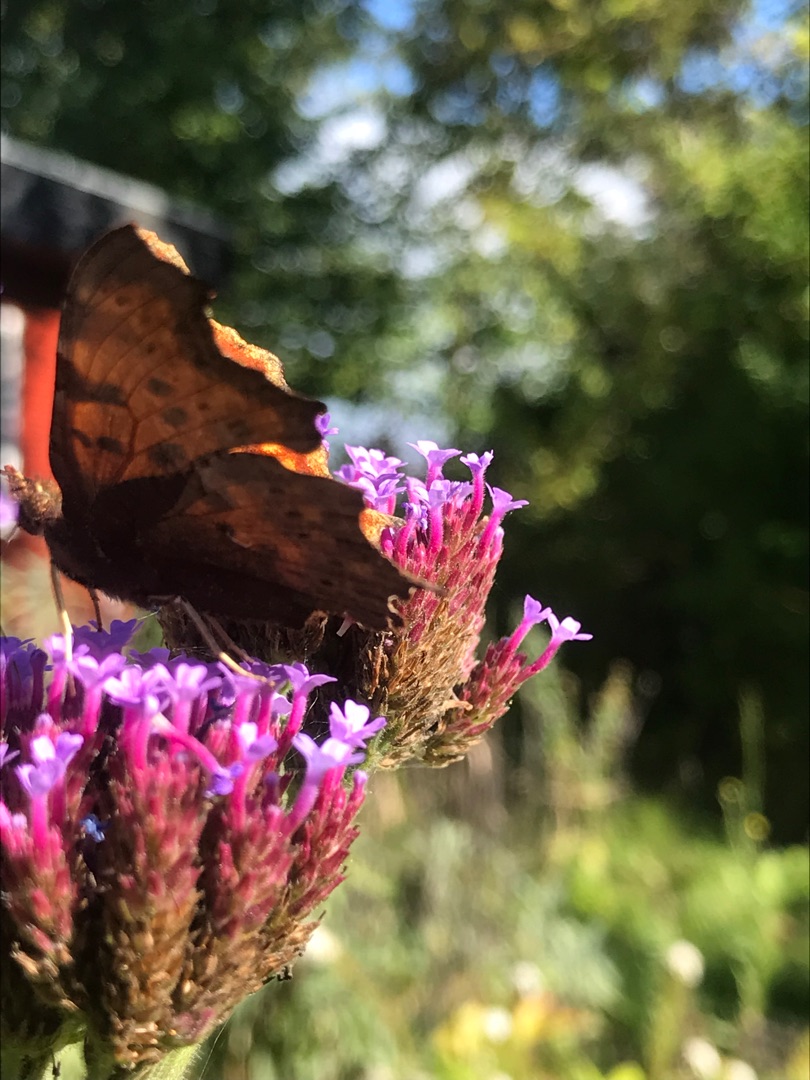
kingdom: Animalia
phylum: Arthropoda
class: Insecta
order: Lepidoptera
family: Nymphalidae
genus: Polygonia
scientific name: Polygonia c-album
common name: Det hvide C
